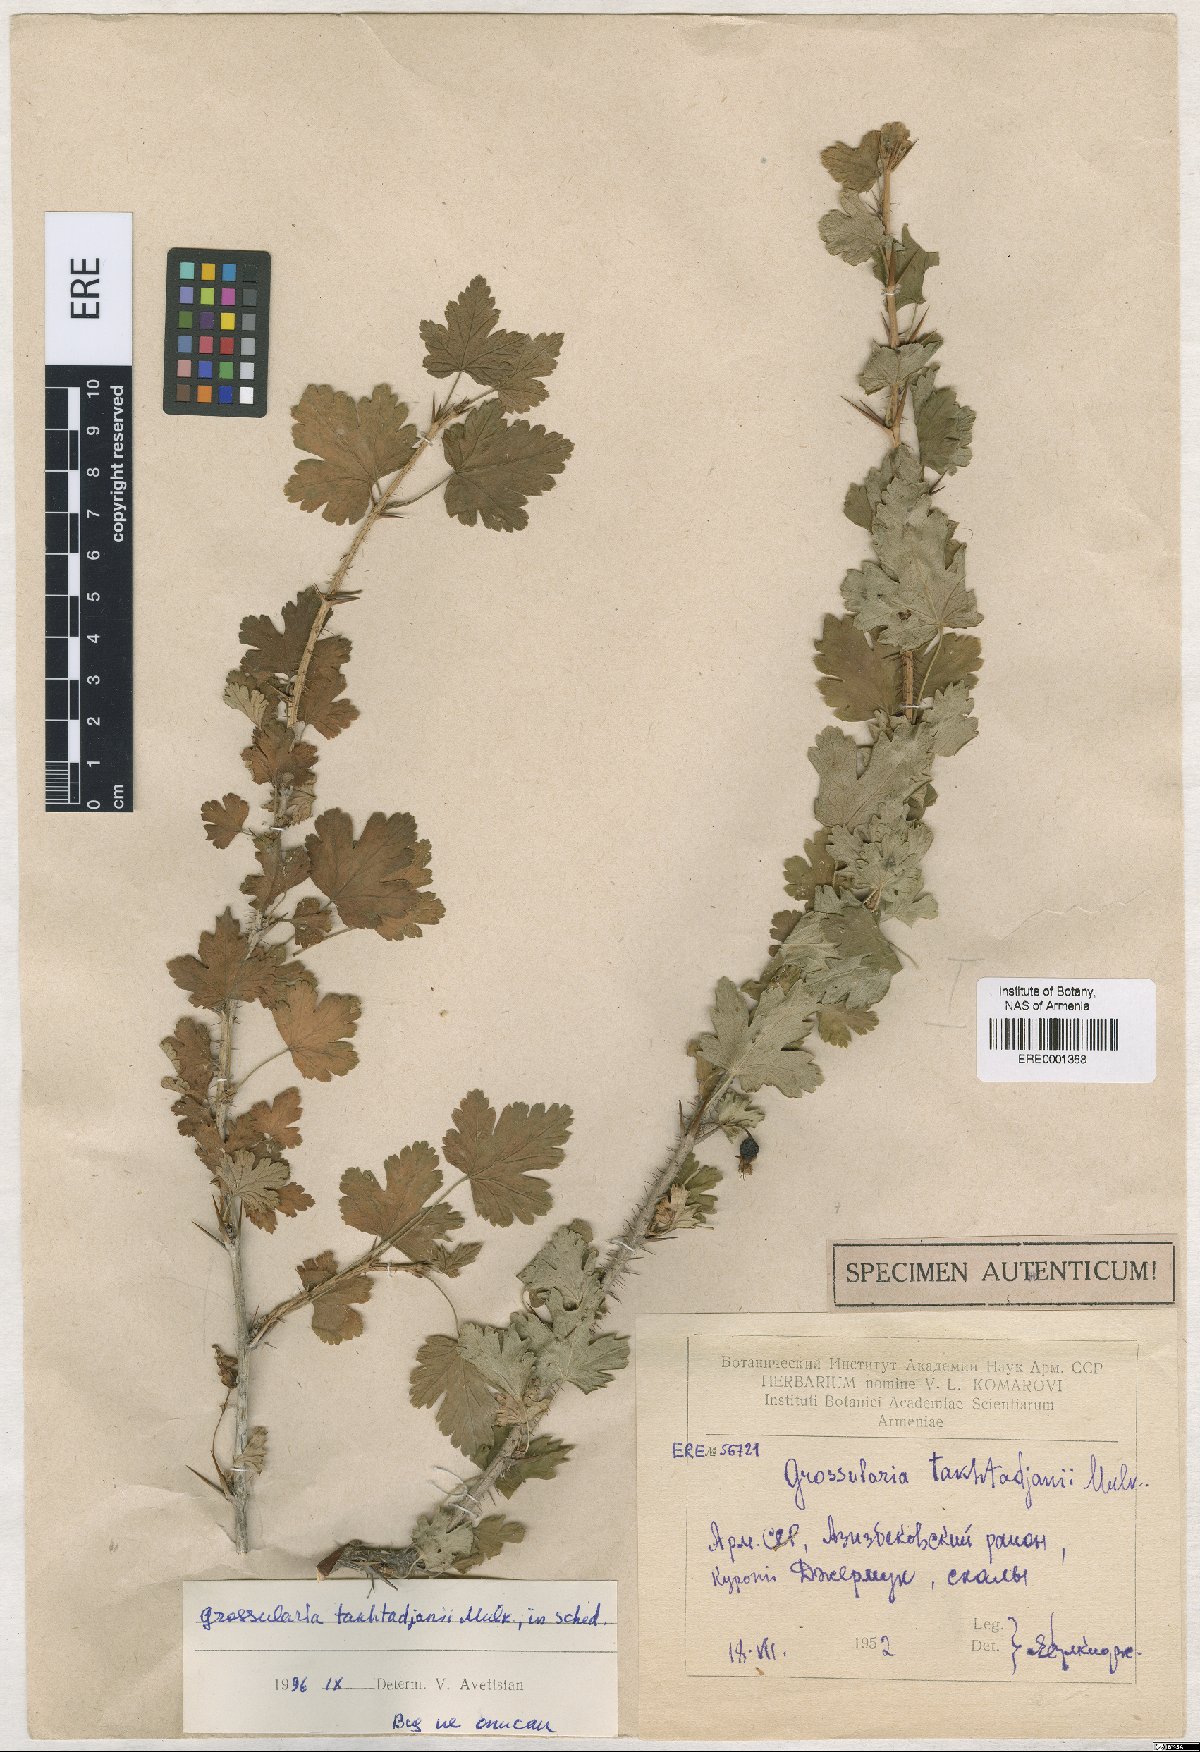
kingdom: Plantae
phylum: Tracheophyta
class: Magnoliopsida
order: Saxifragales
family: Grossulariaceae
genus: Grossularia
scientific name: Grossularia
